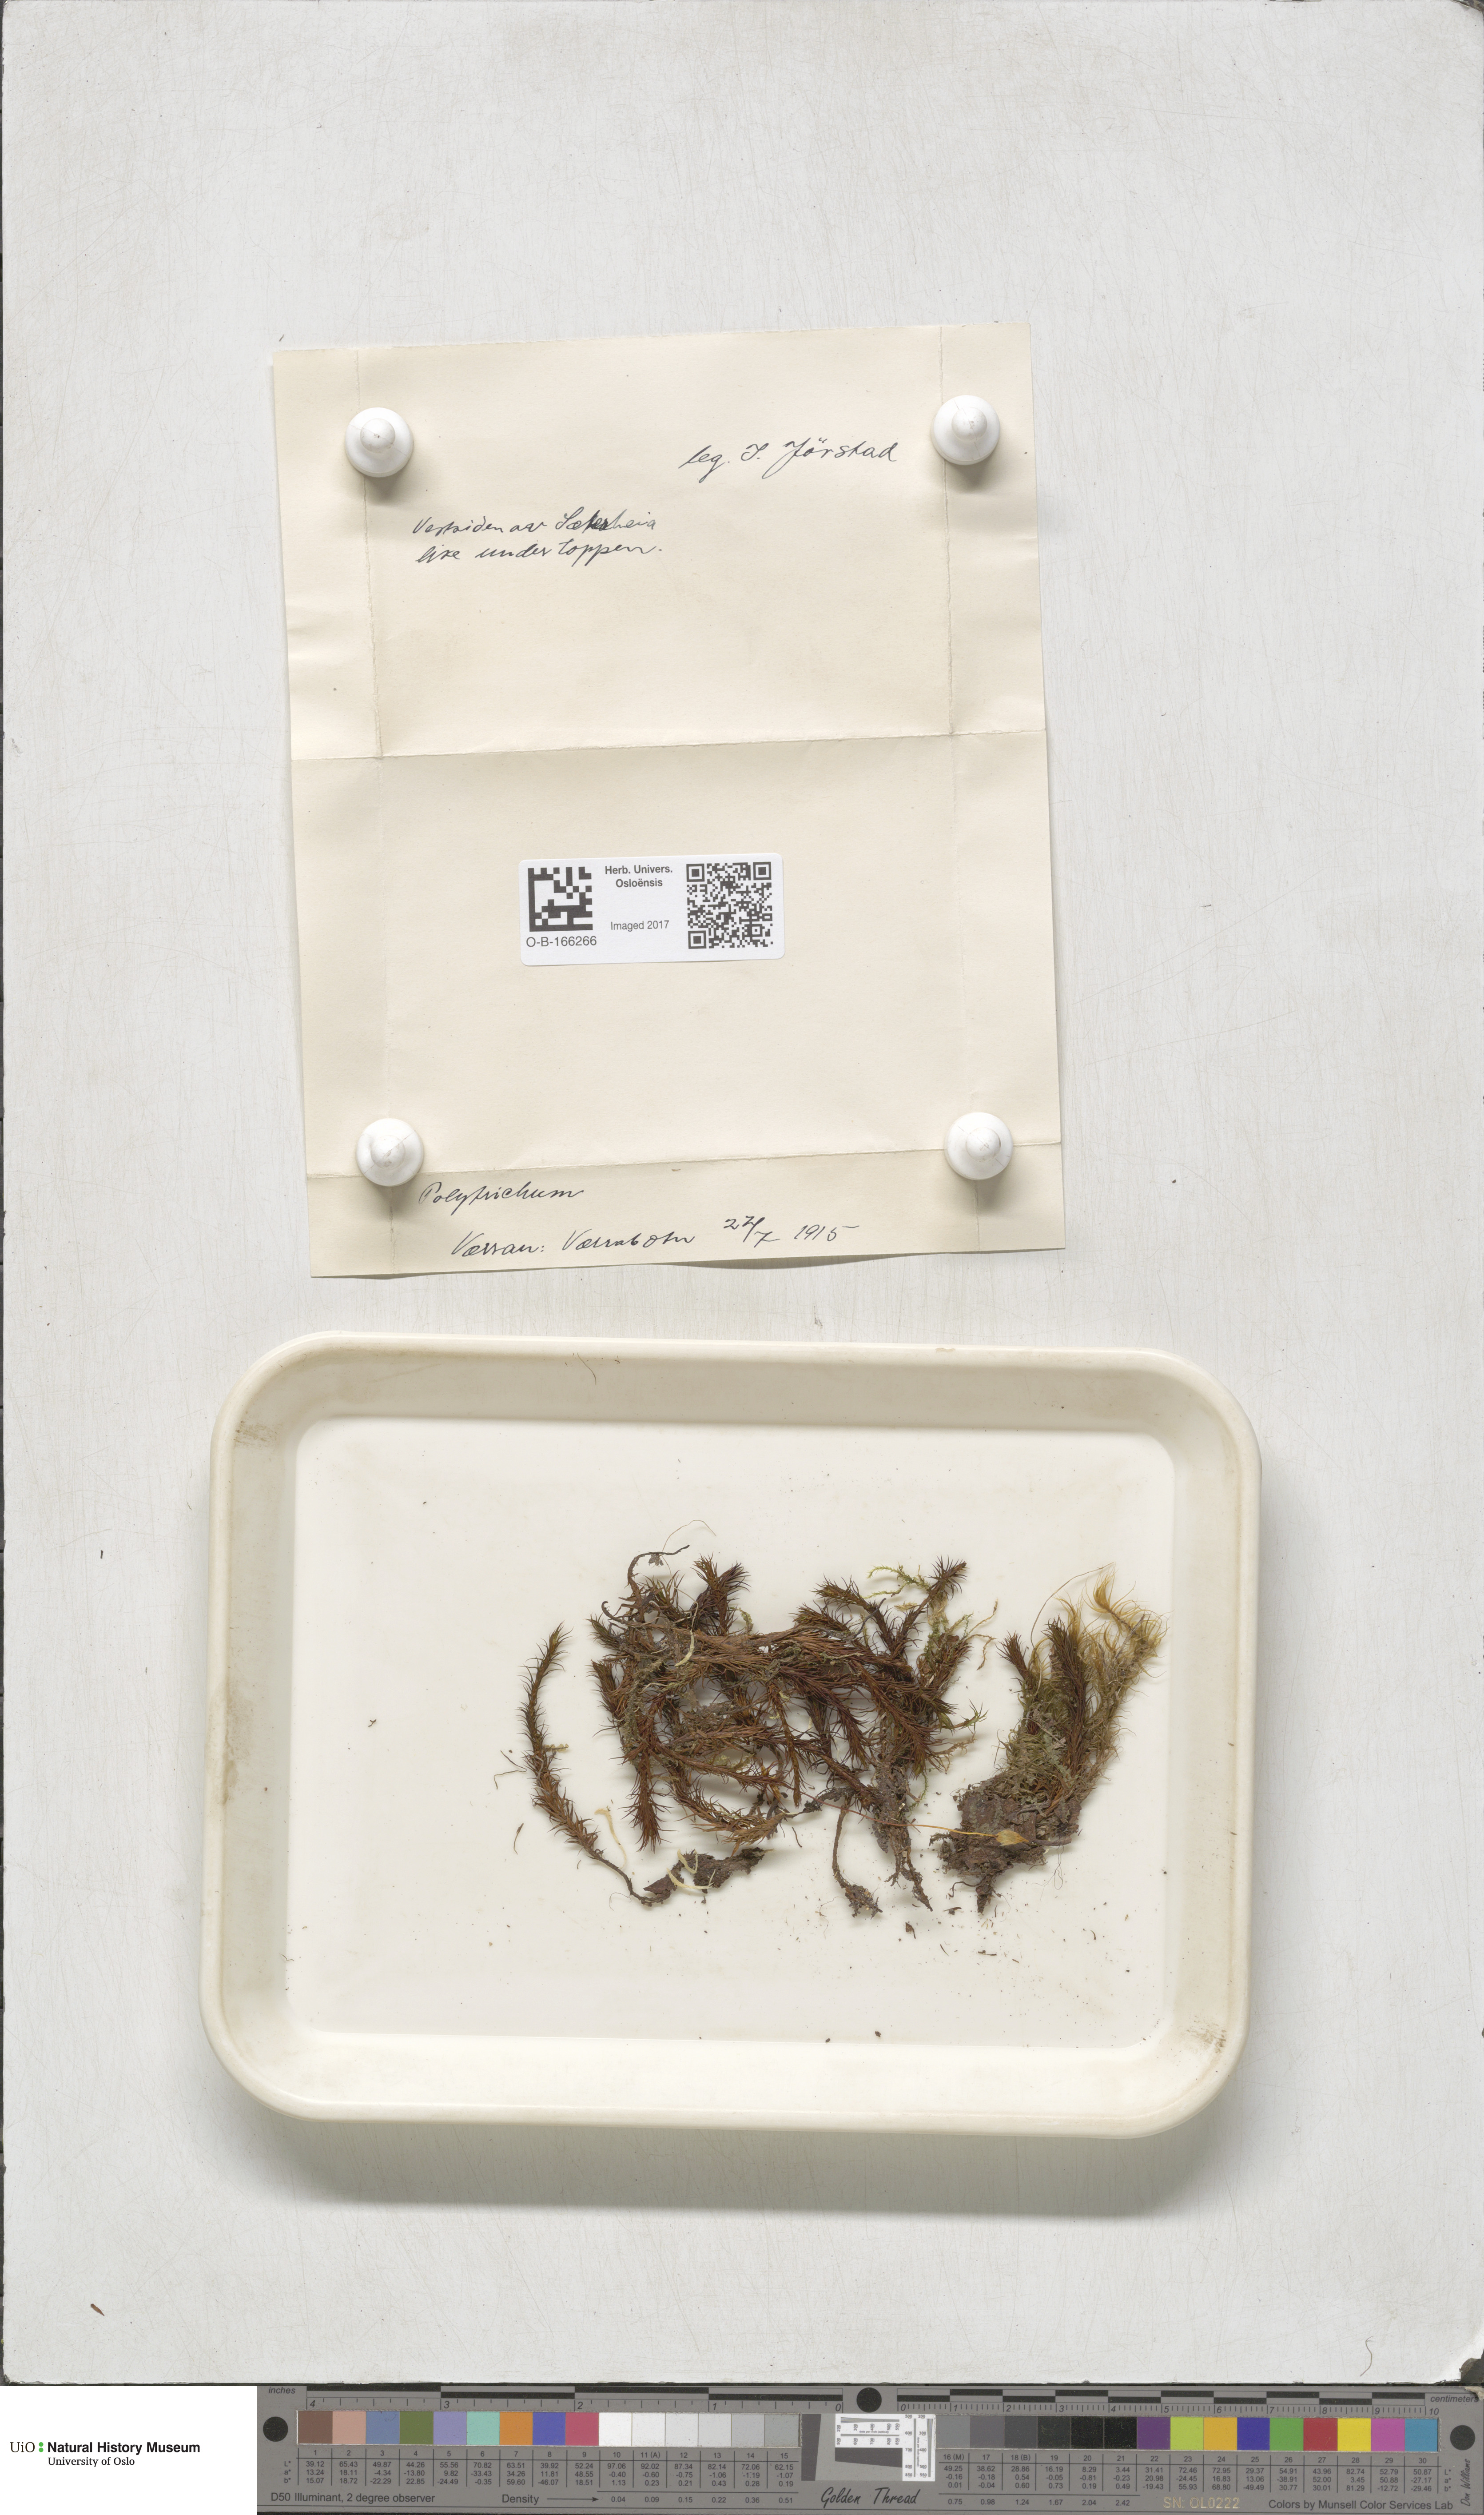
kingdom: Plantae
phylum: Bryophyta
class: Polytrichopsida
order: Polytrichales
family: Polytrichaceae
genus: Polytrichum
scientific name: Polytrichum
